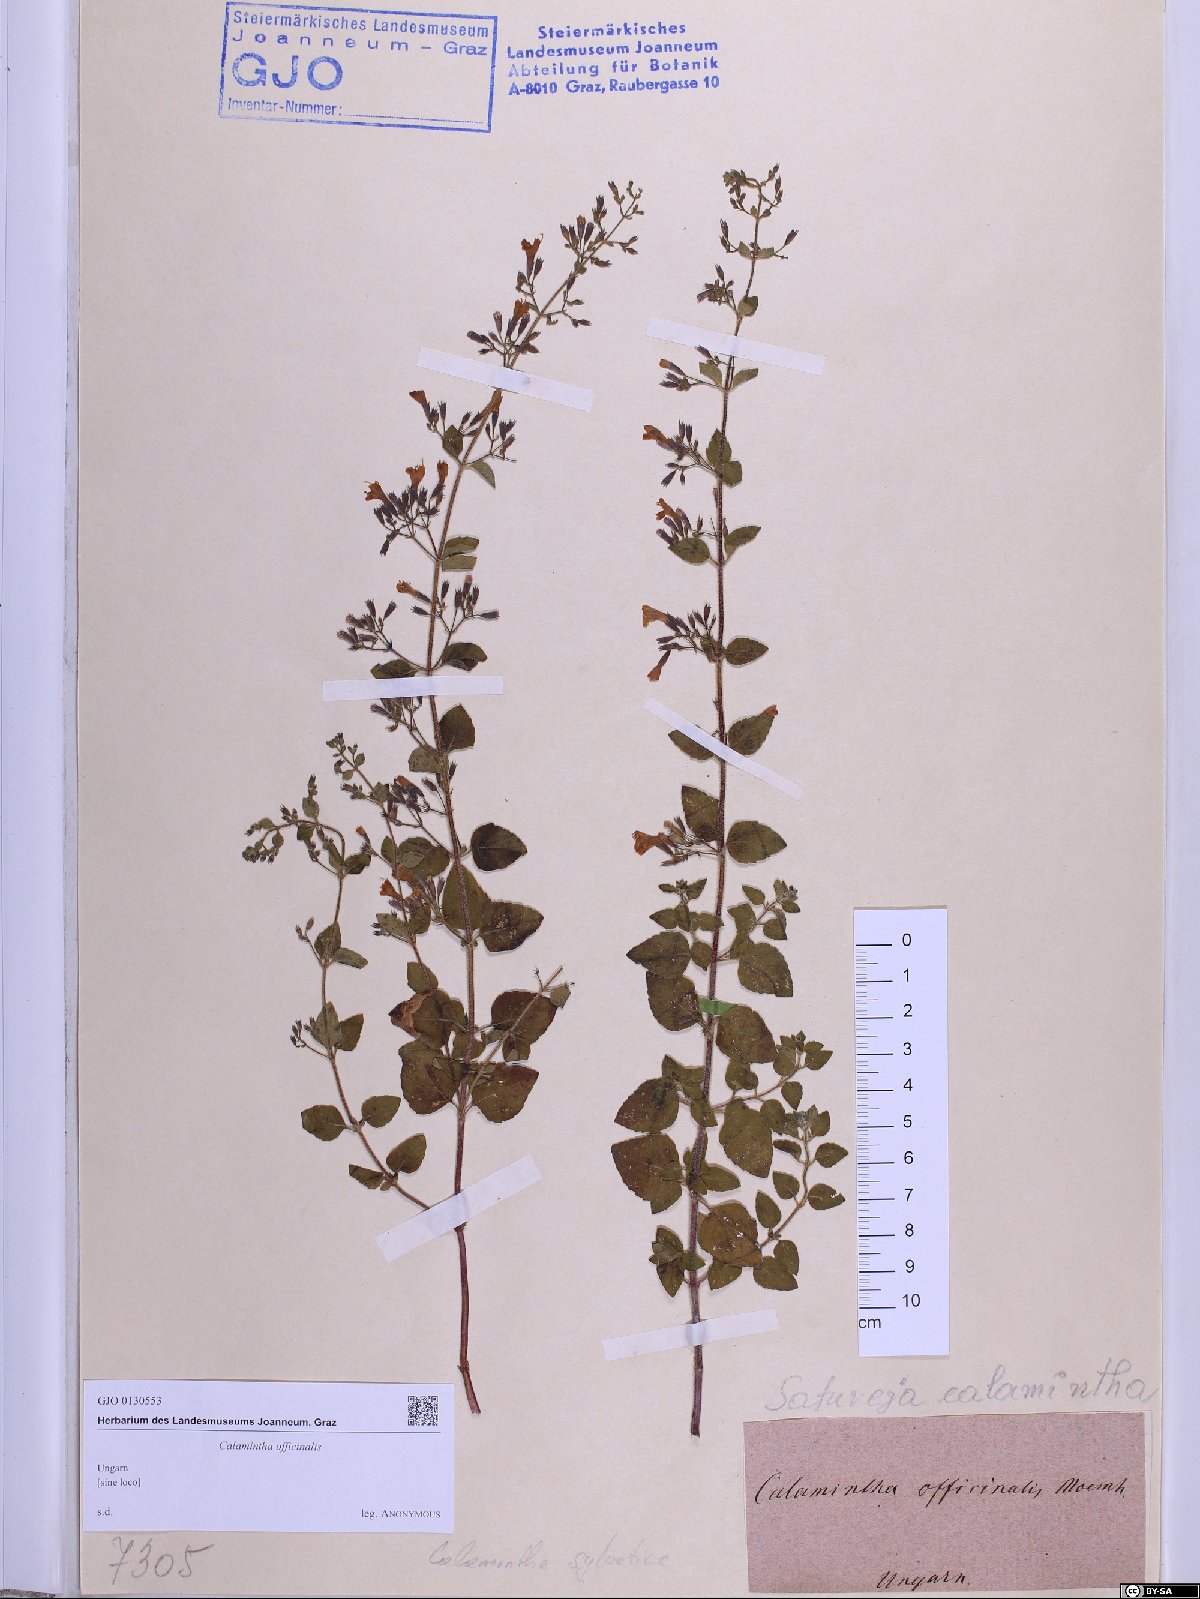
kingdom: Plantae
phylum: Tracheophyta
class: Magnoliopsida
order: Lamiales
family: Lamiaceae
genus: Clinopodium
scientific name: Clinopodium nepeta
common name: Lesser calamint
